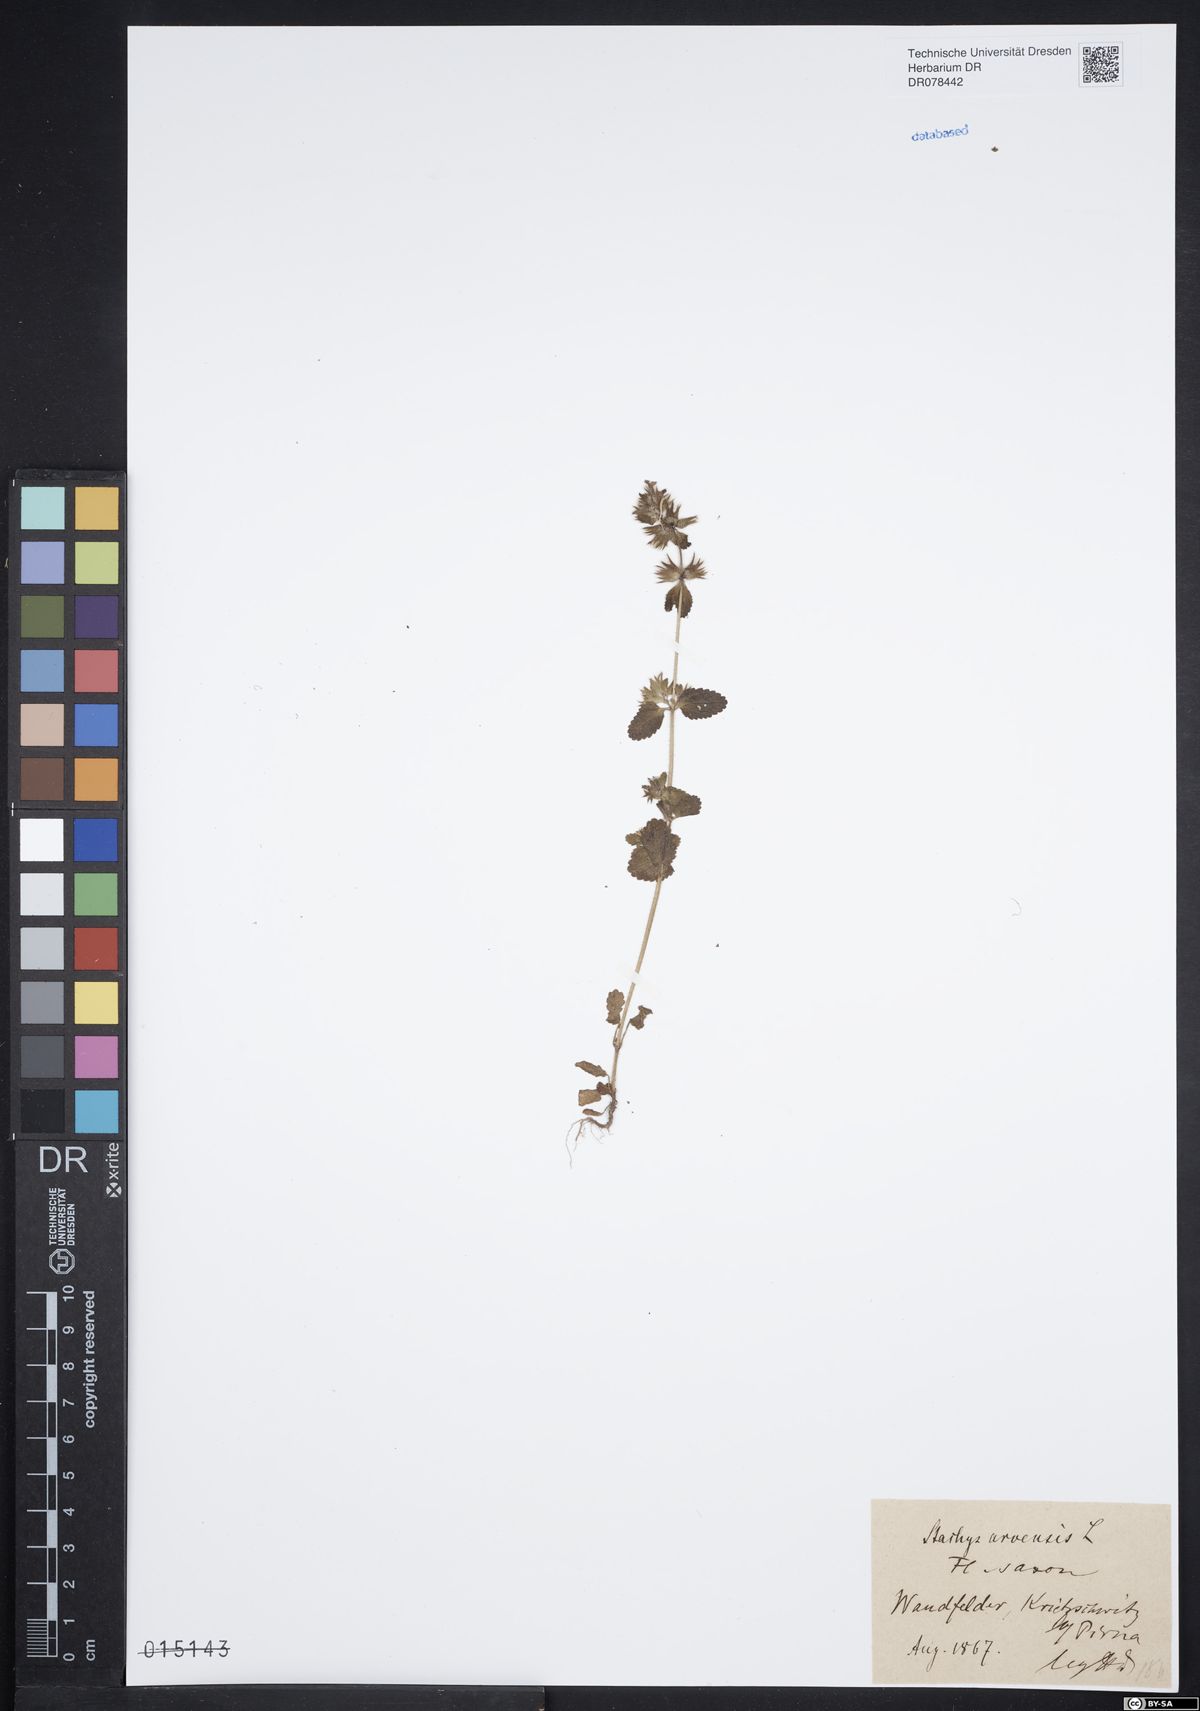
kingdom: Plantae
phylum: Tracheophyta
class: Magnoliopsida
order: Lamiales
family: Lamiaceae
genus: Stachys
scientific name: Stachys arvensis
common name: Field woundwort
